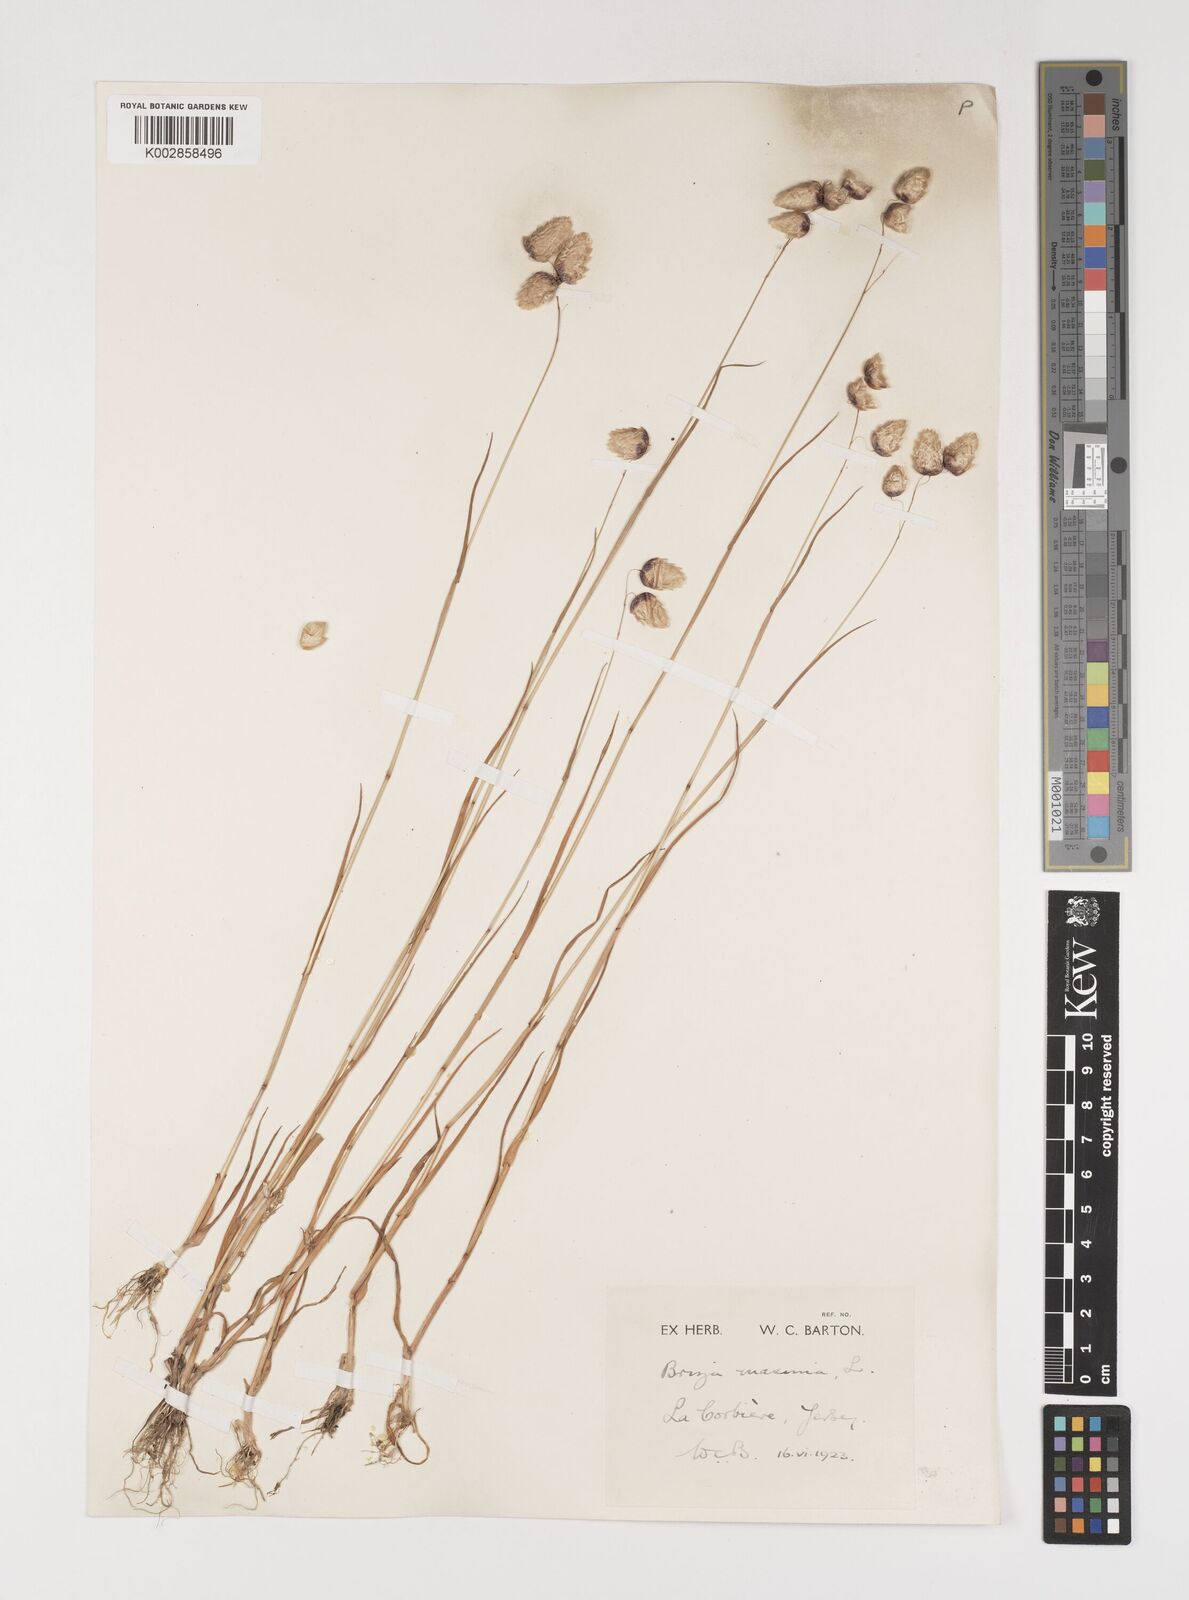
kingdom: Plantae
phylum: Tracheophyta
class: Liliopsida
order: Poales
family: Poaceae
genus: Briza
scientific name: Briza maxima
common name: Big quakinggrass
